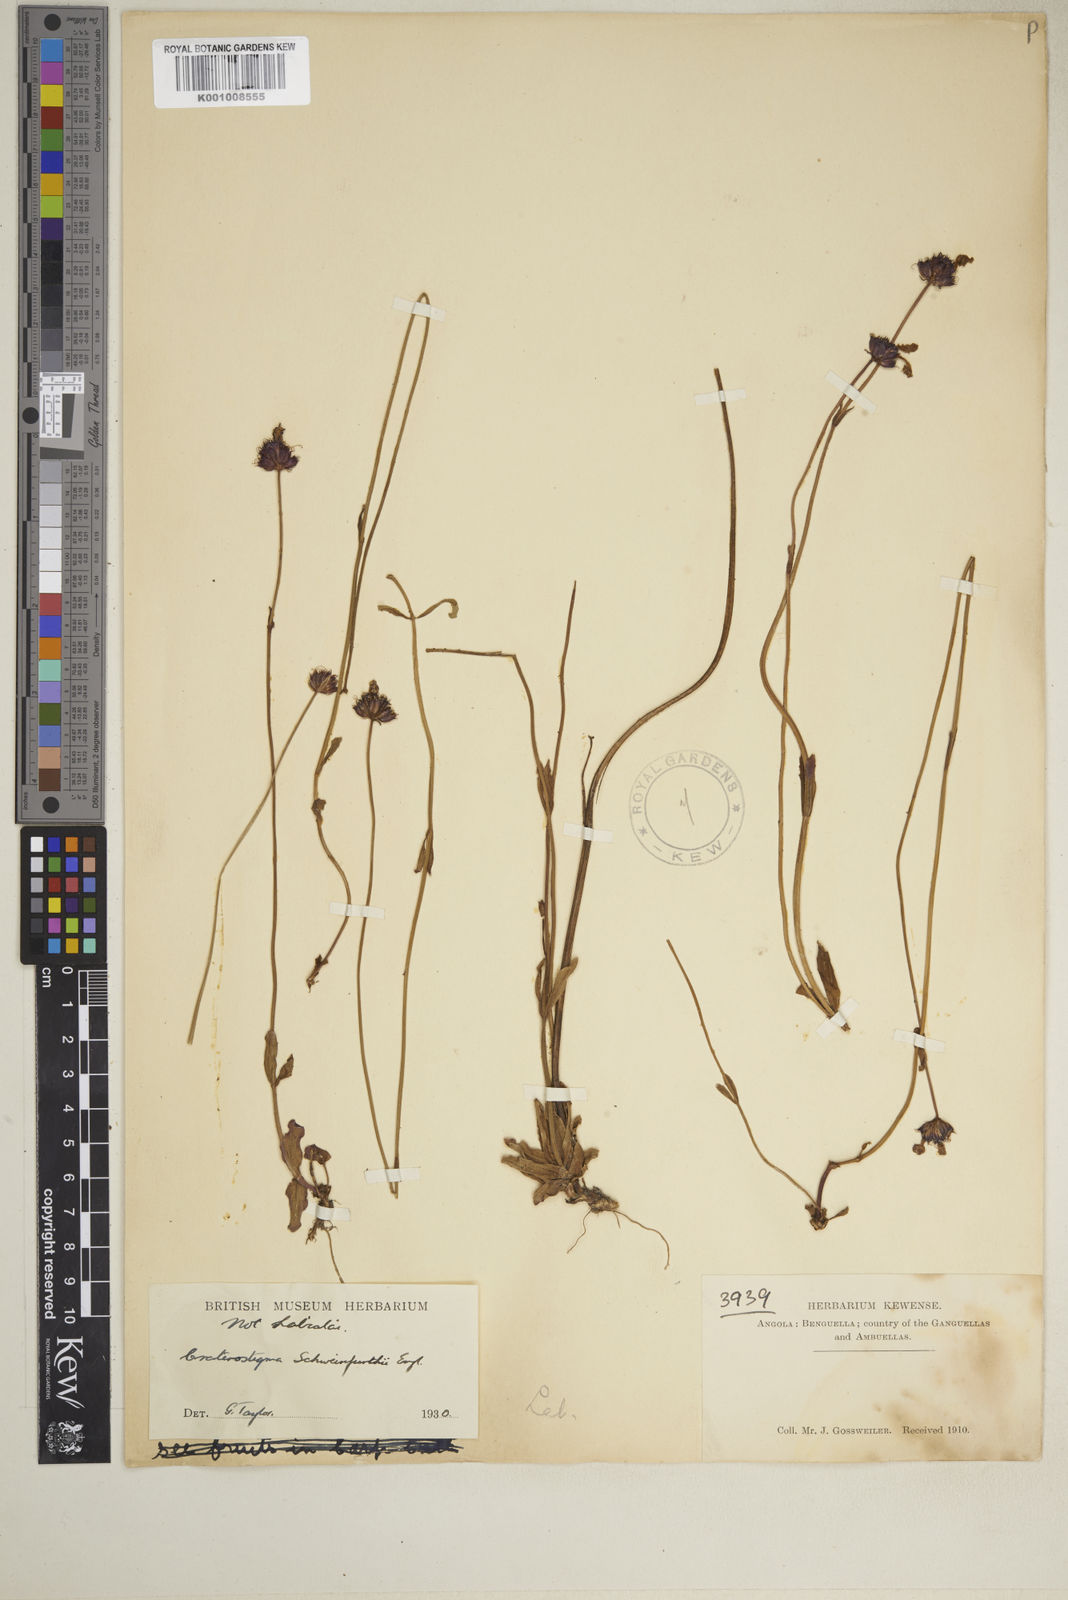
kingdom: Plantae
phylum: Tracheophyta
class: Magnoliopsida
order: Lamiales
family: Linderniaceae
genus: Crepidorhopalon
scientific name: Crepidorhopalon schweinfurthii
